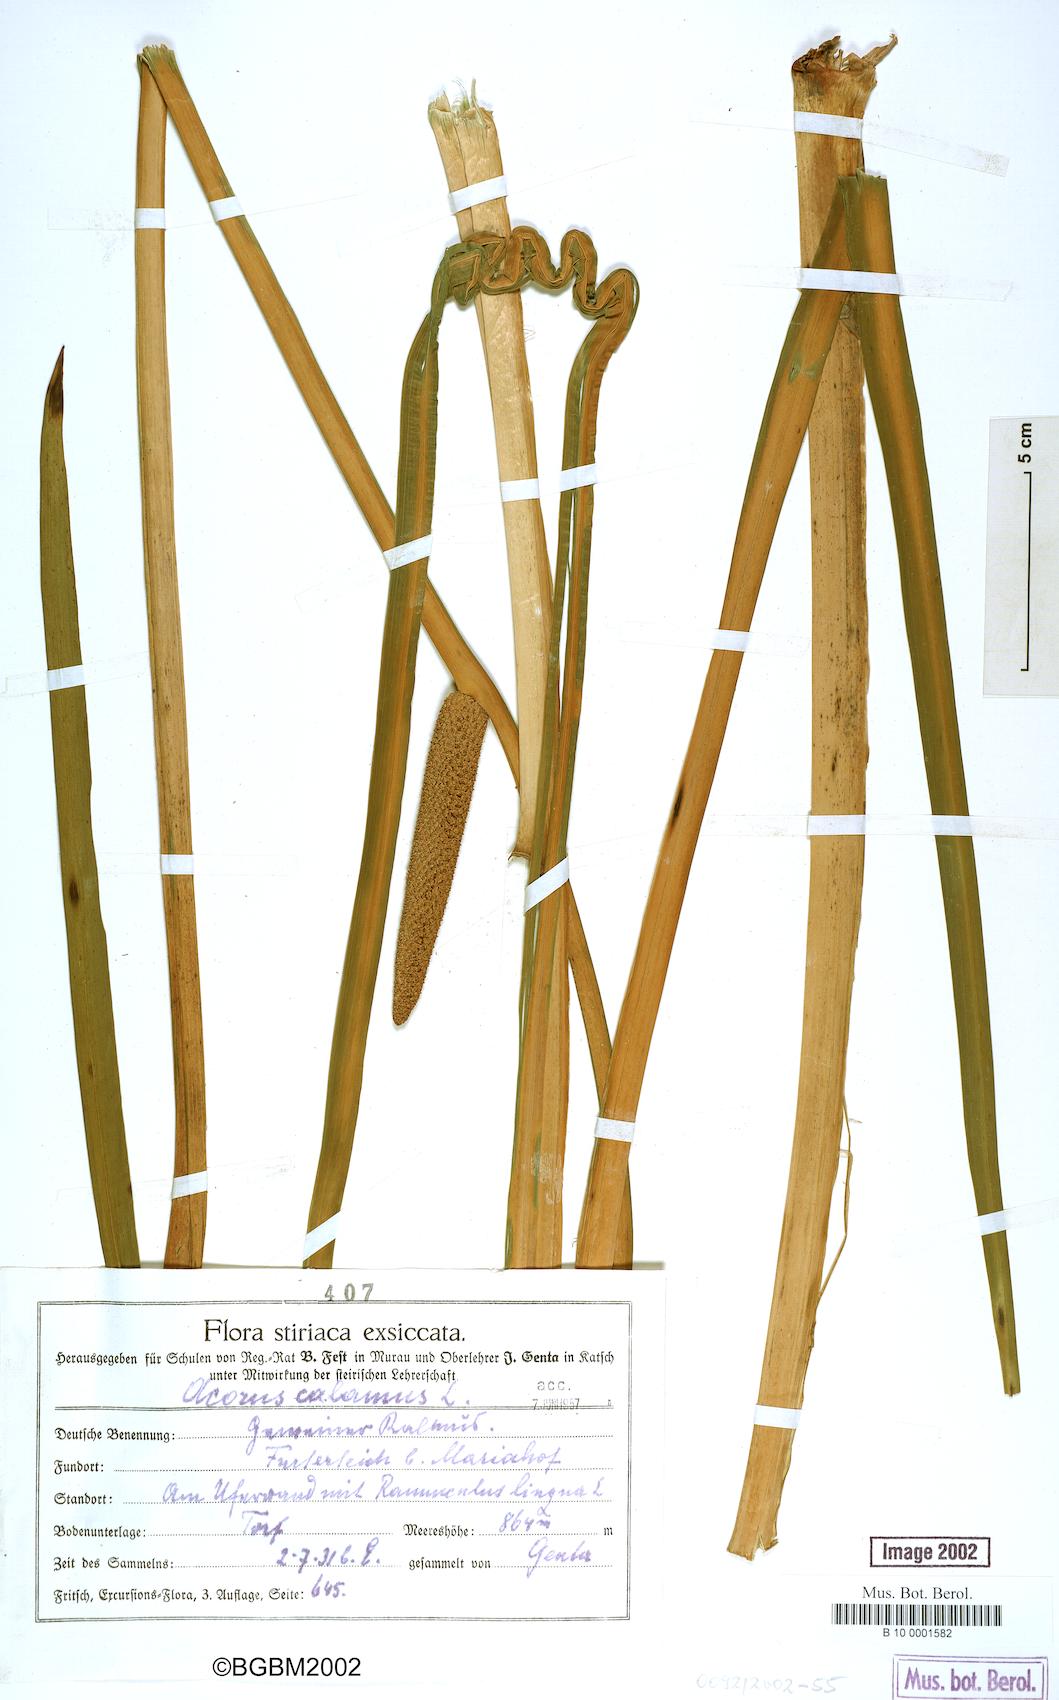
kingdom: Plantae
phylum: Tracheophyta
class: Liliopsida
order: Acorales
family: Acoraceae
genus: Acorus
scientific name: Acorus calamus
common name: Sweet-flag
